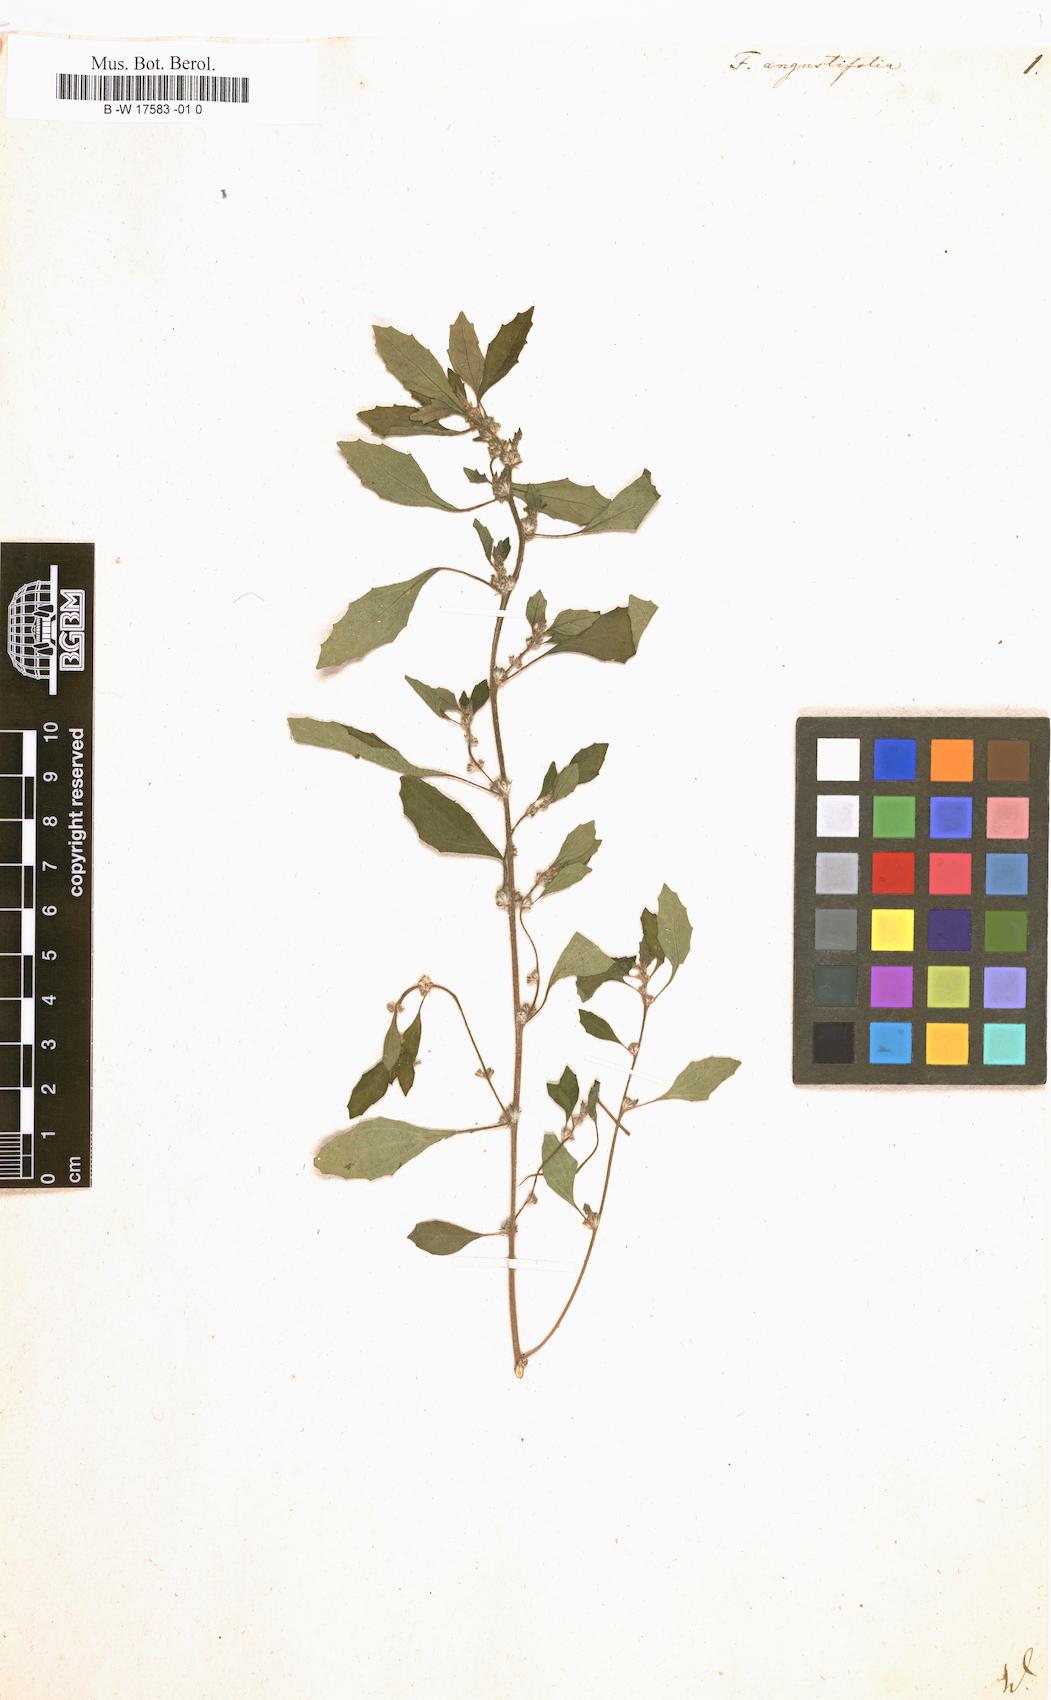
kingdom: Plantae
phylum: Tracheophyta
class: Magnoliopsida
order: Rosales
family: Urticaceae
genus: Forskohlea
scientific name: Forskohlea
